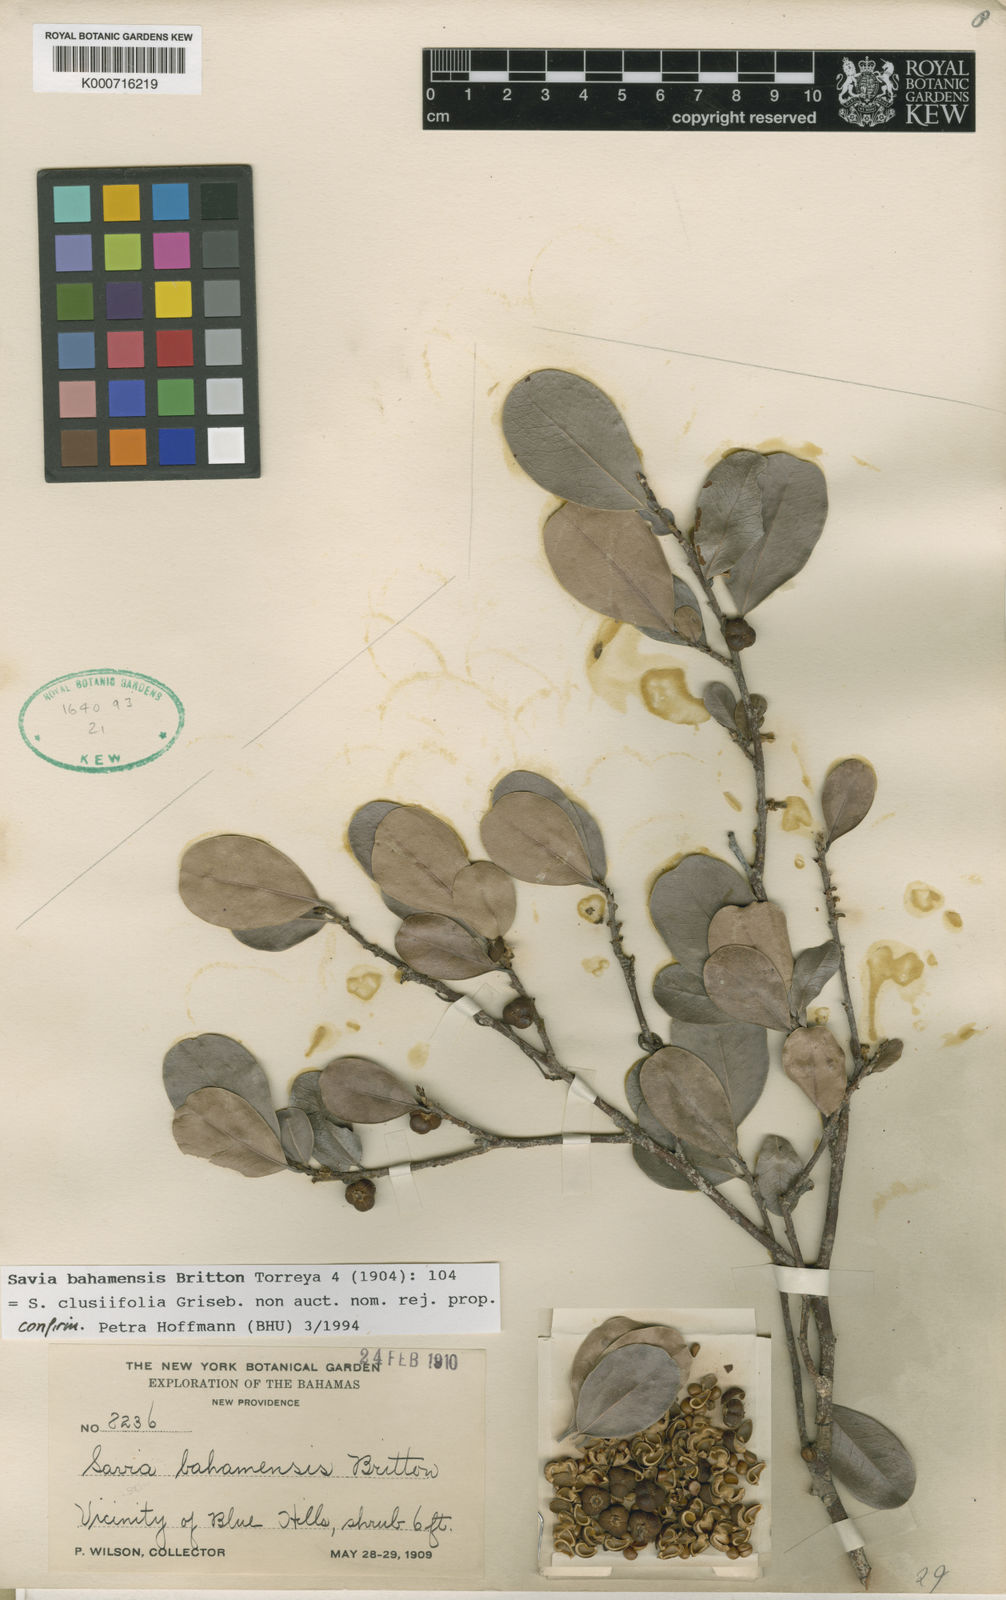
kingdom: Plantae
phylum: Tracheophyta
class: Magnoliopsida
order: Malpighiales
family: Phyllanthaceae
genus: Heterosavia
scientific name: Heterosavia bahamensis
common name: Bahama maidenbush
